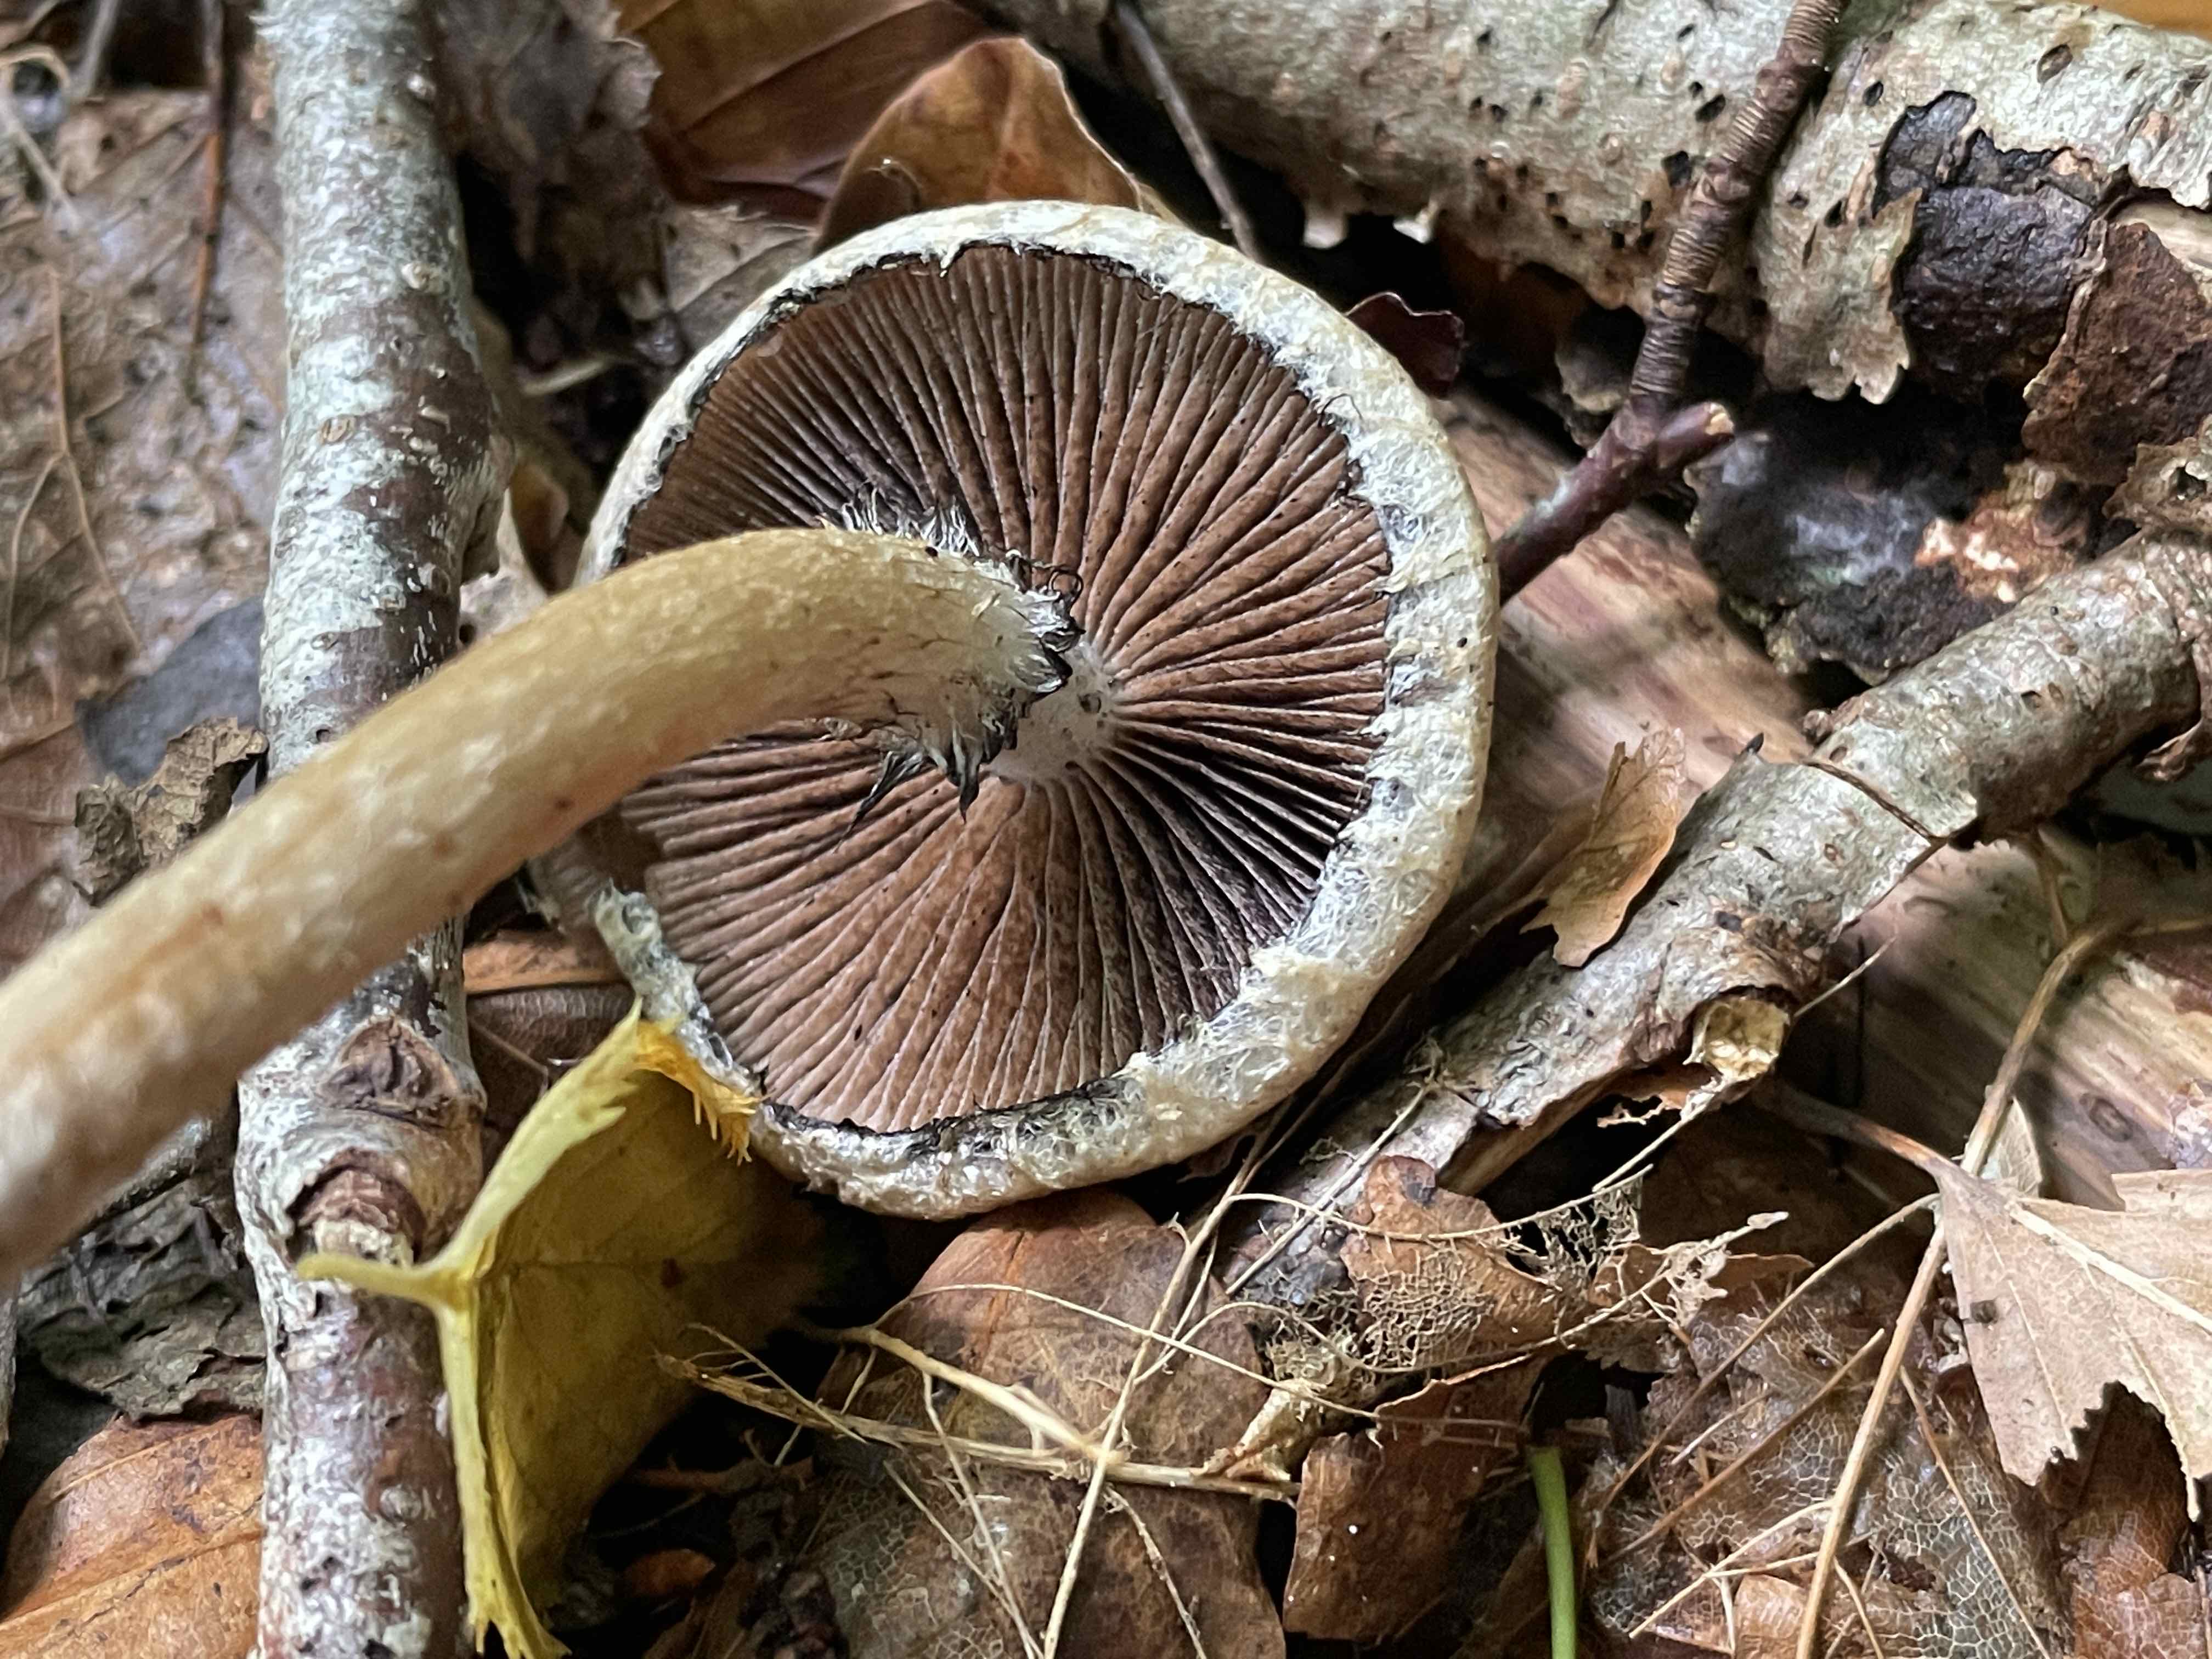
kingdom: Fungi
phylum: Basidiomycota
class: Agaricomycetes
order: Agaricales
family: Psathyrellaceae
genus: Lacrymaria
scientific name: Lacrymaria lacrymabunda
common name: grædende mørkhat
